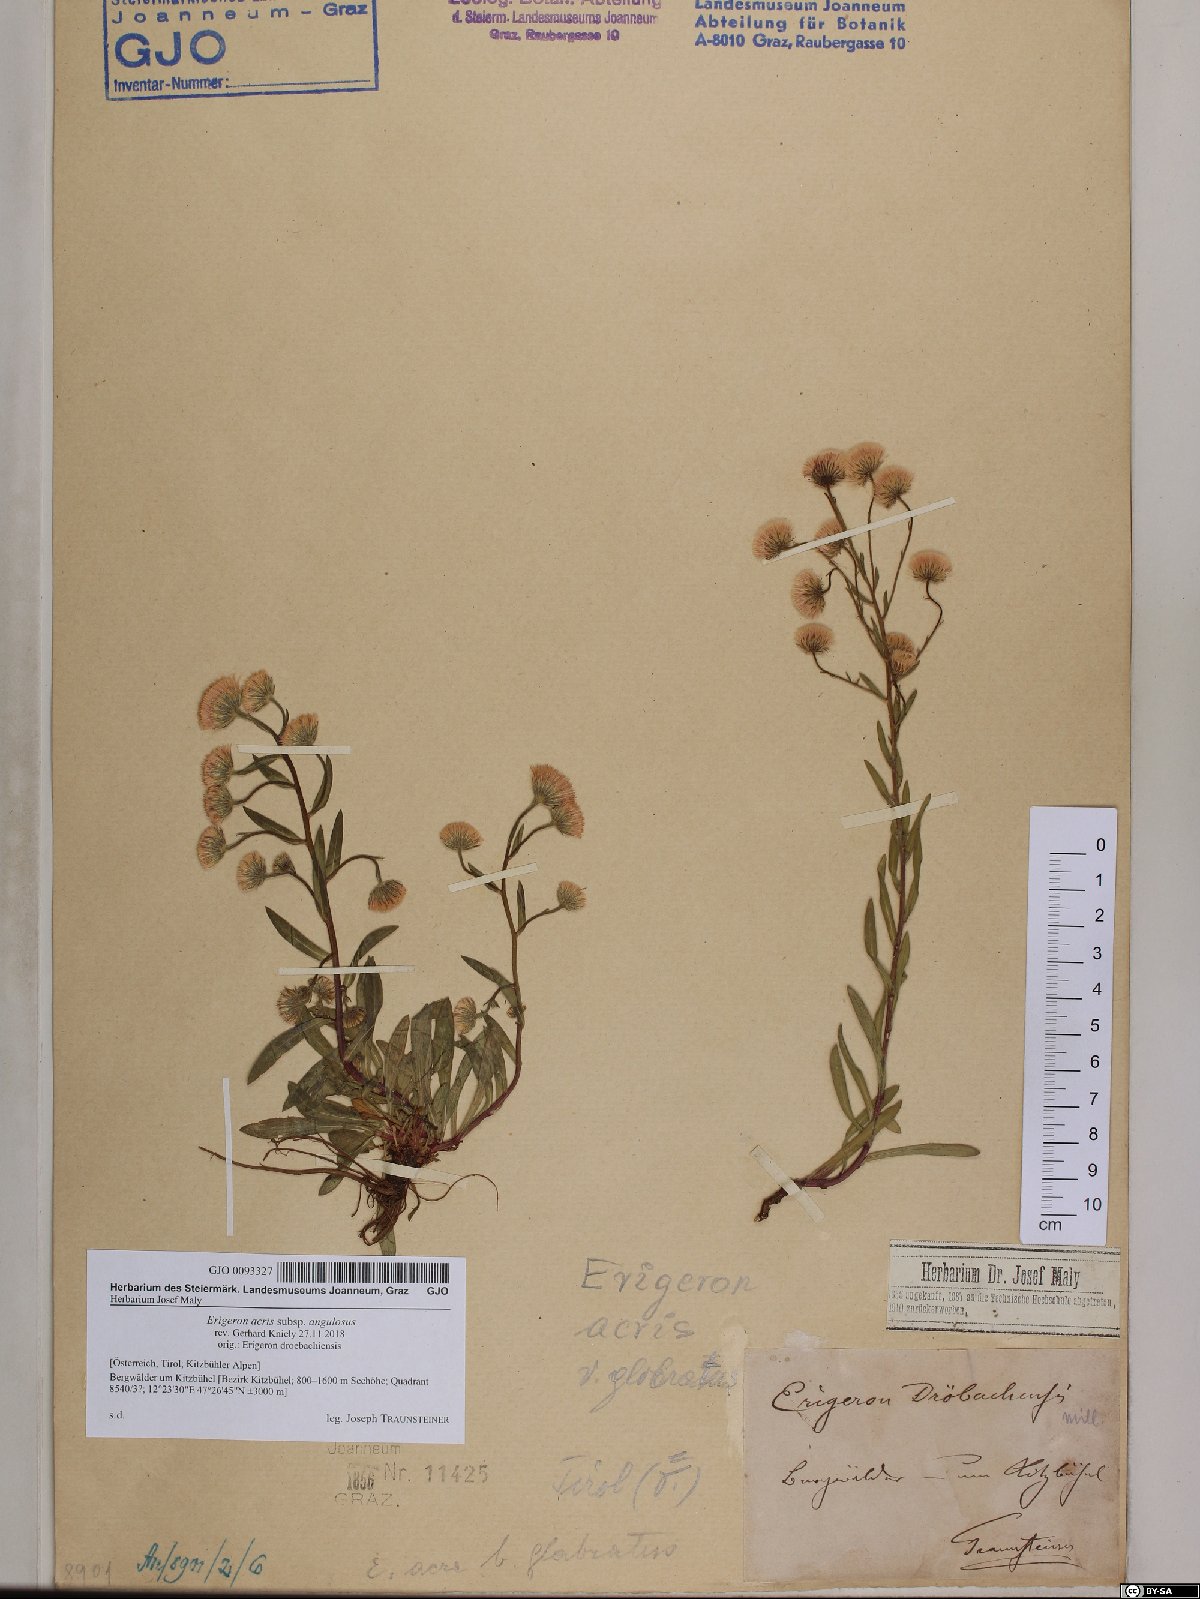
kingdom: Plantae
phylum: Tracheophyta
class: Magnoliopsida
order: Asterales
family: Asteraceae
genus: Erigeron
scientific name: Erigeron angulosus
